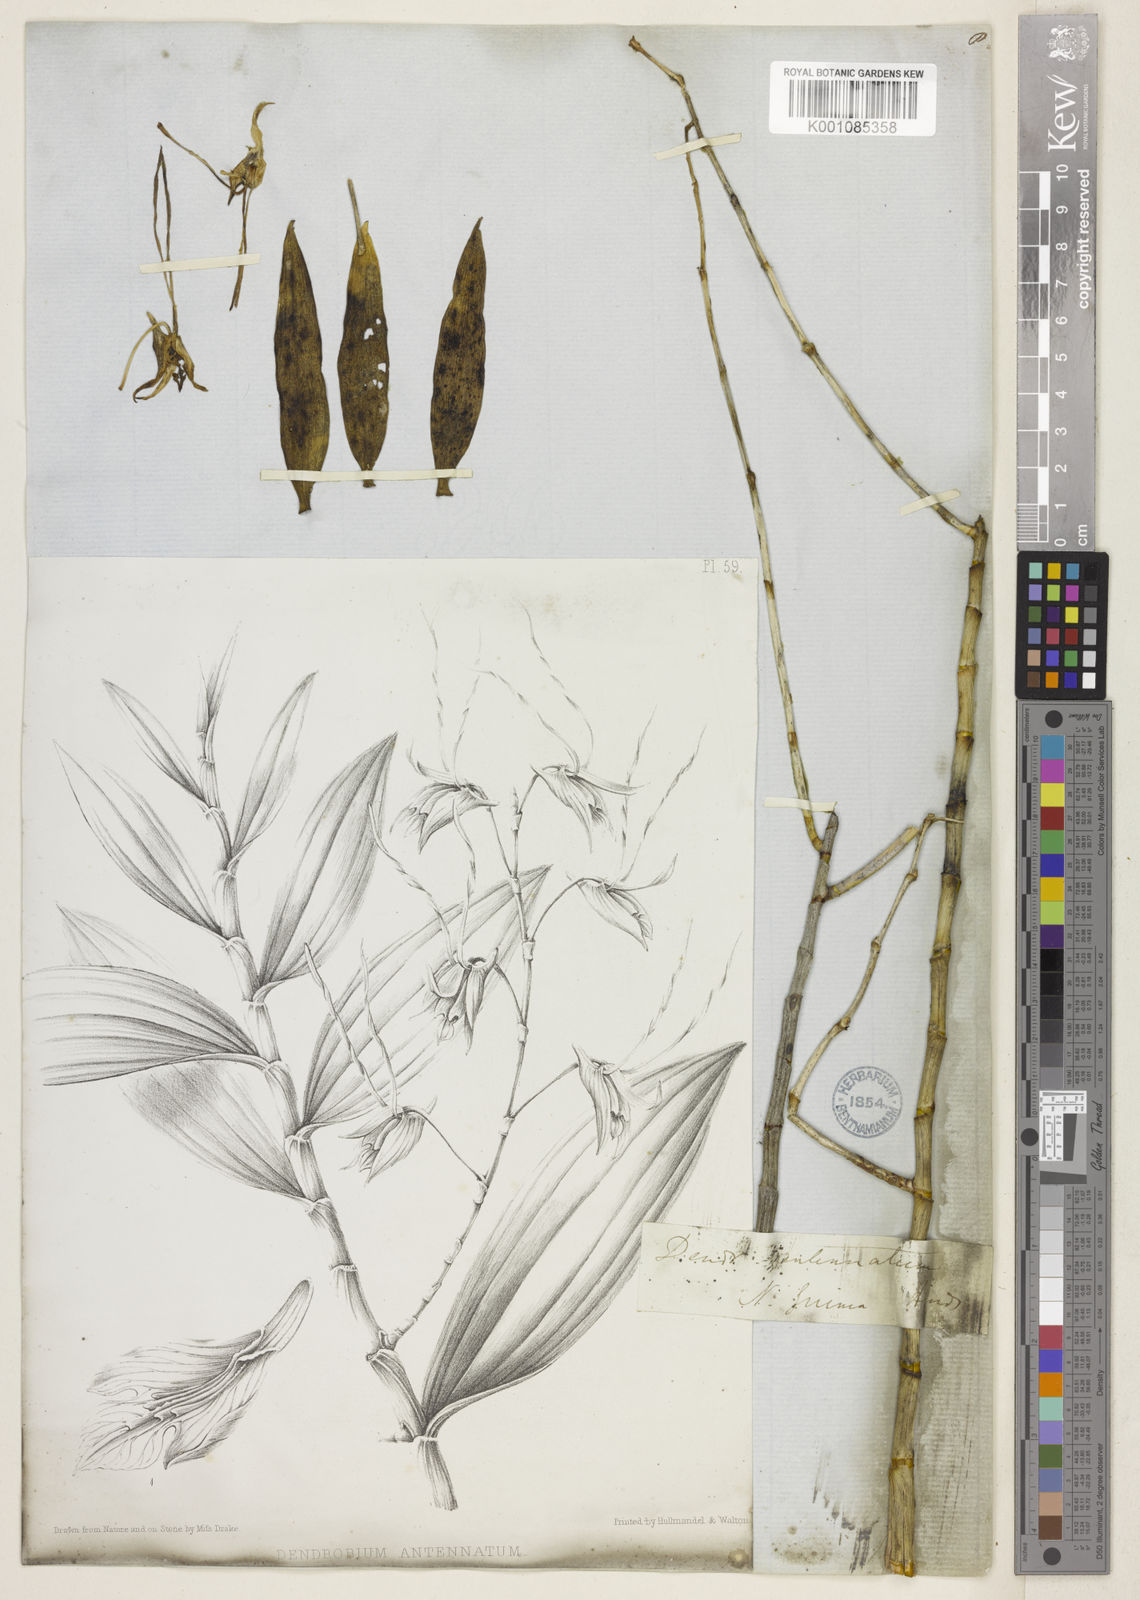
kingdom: Plantae
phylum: Tracheophyta
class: Liliopsida
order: Asparagales
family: Orchidaceae
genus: Dendrobium
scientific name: Dendrobium antennatum
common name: Green antelope orchid
